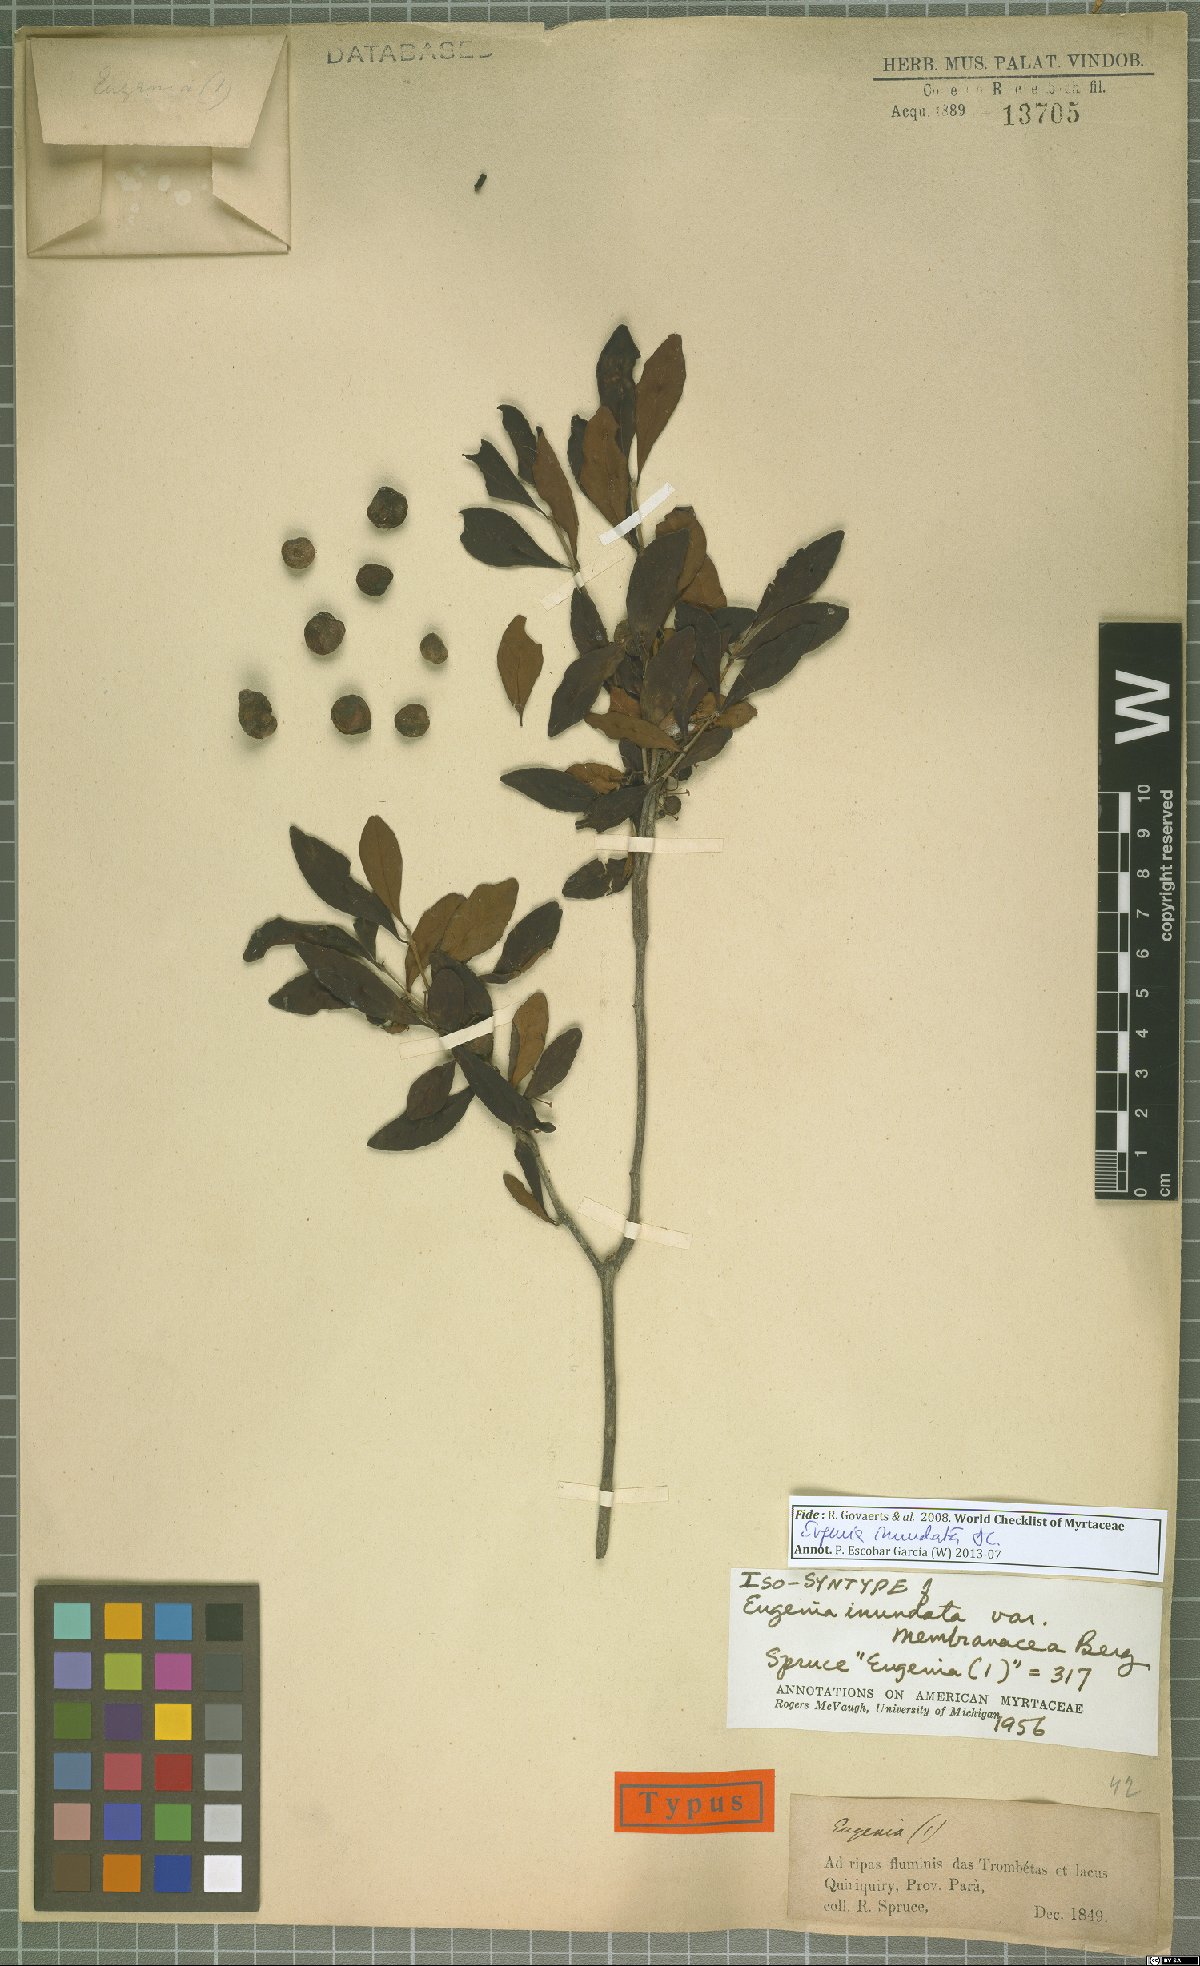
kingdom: Plantae
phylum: Tracheophyta
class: Magnoliopsida
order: Myrtales
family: Myrtaceae
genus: Eugenia
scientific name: Eugenia inundata
